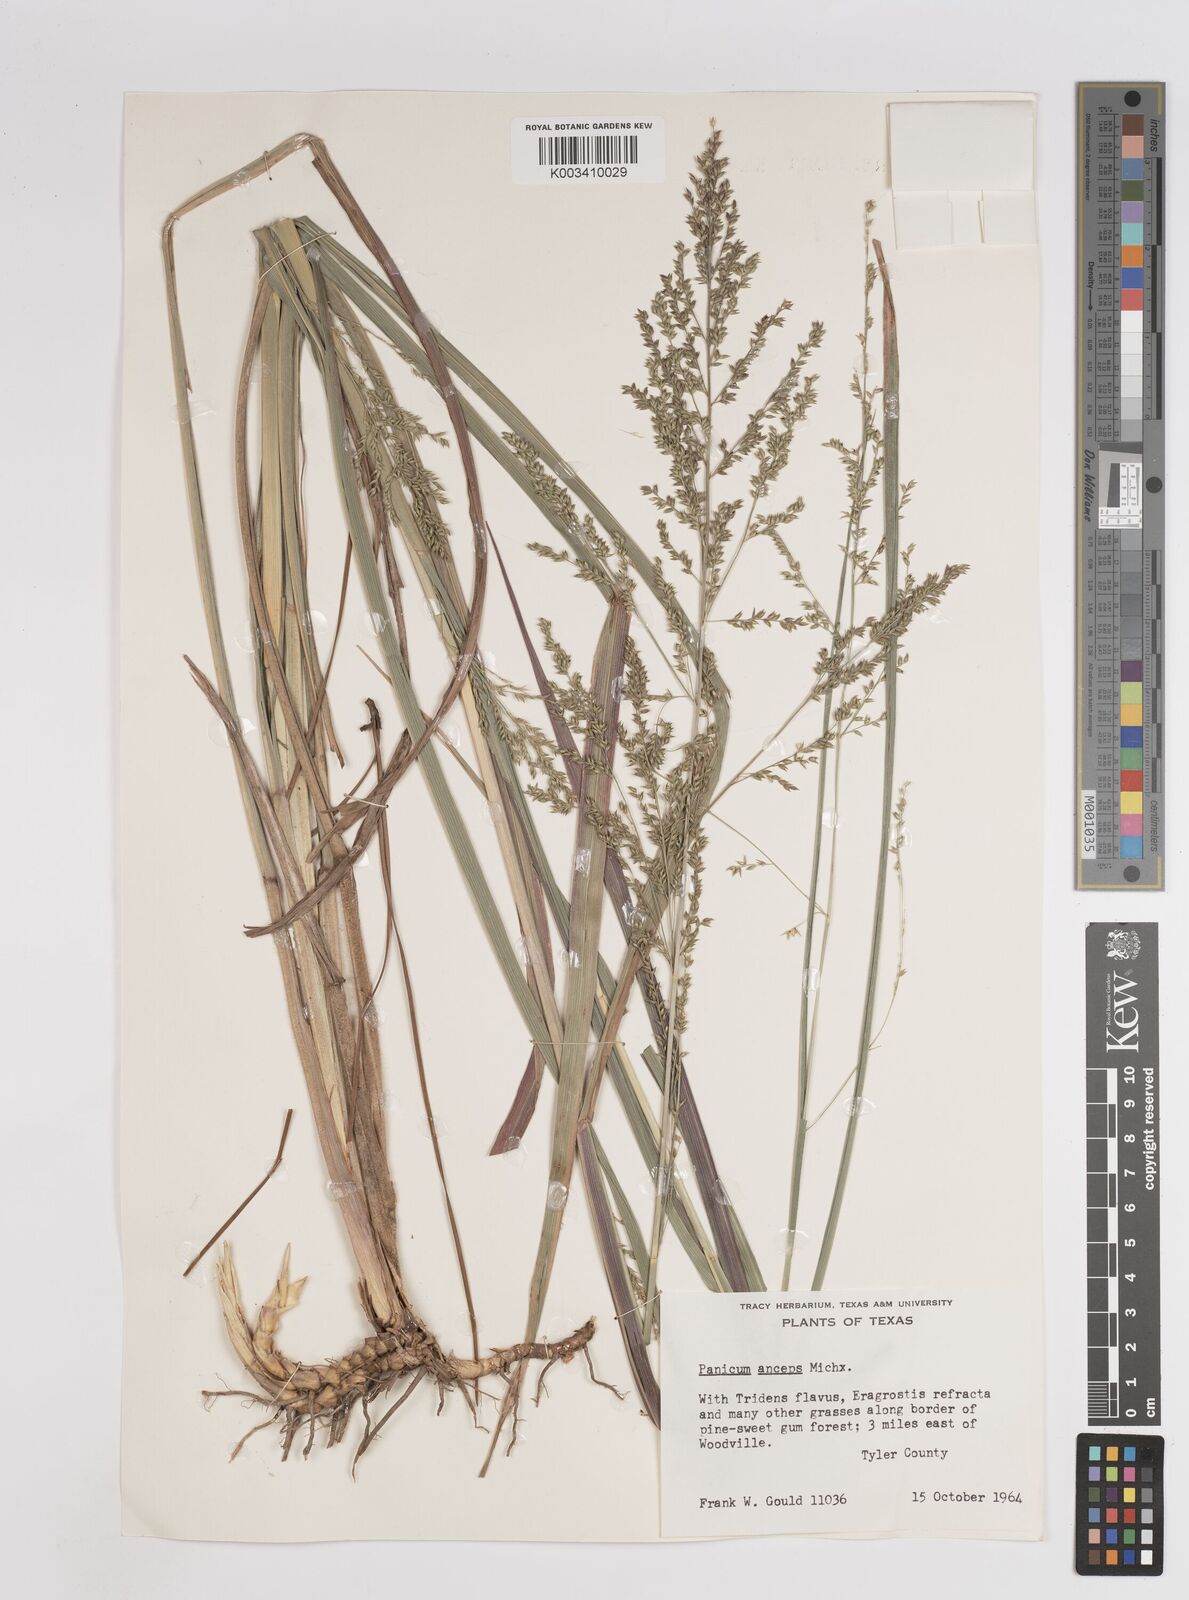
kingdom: Plantae
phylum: Tracheophyta
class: Liliopsida
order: Poales
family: Poaceae
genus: Coleataenia
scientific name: Coleataenia anceps
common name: Beaked panic grass
